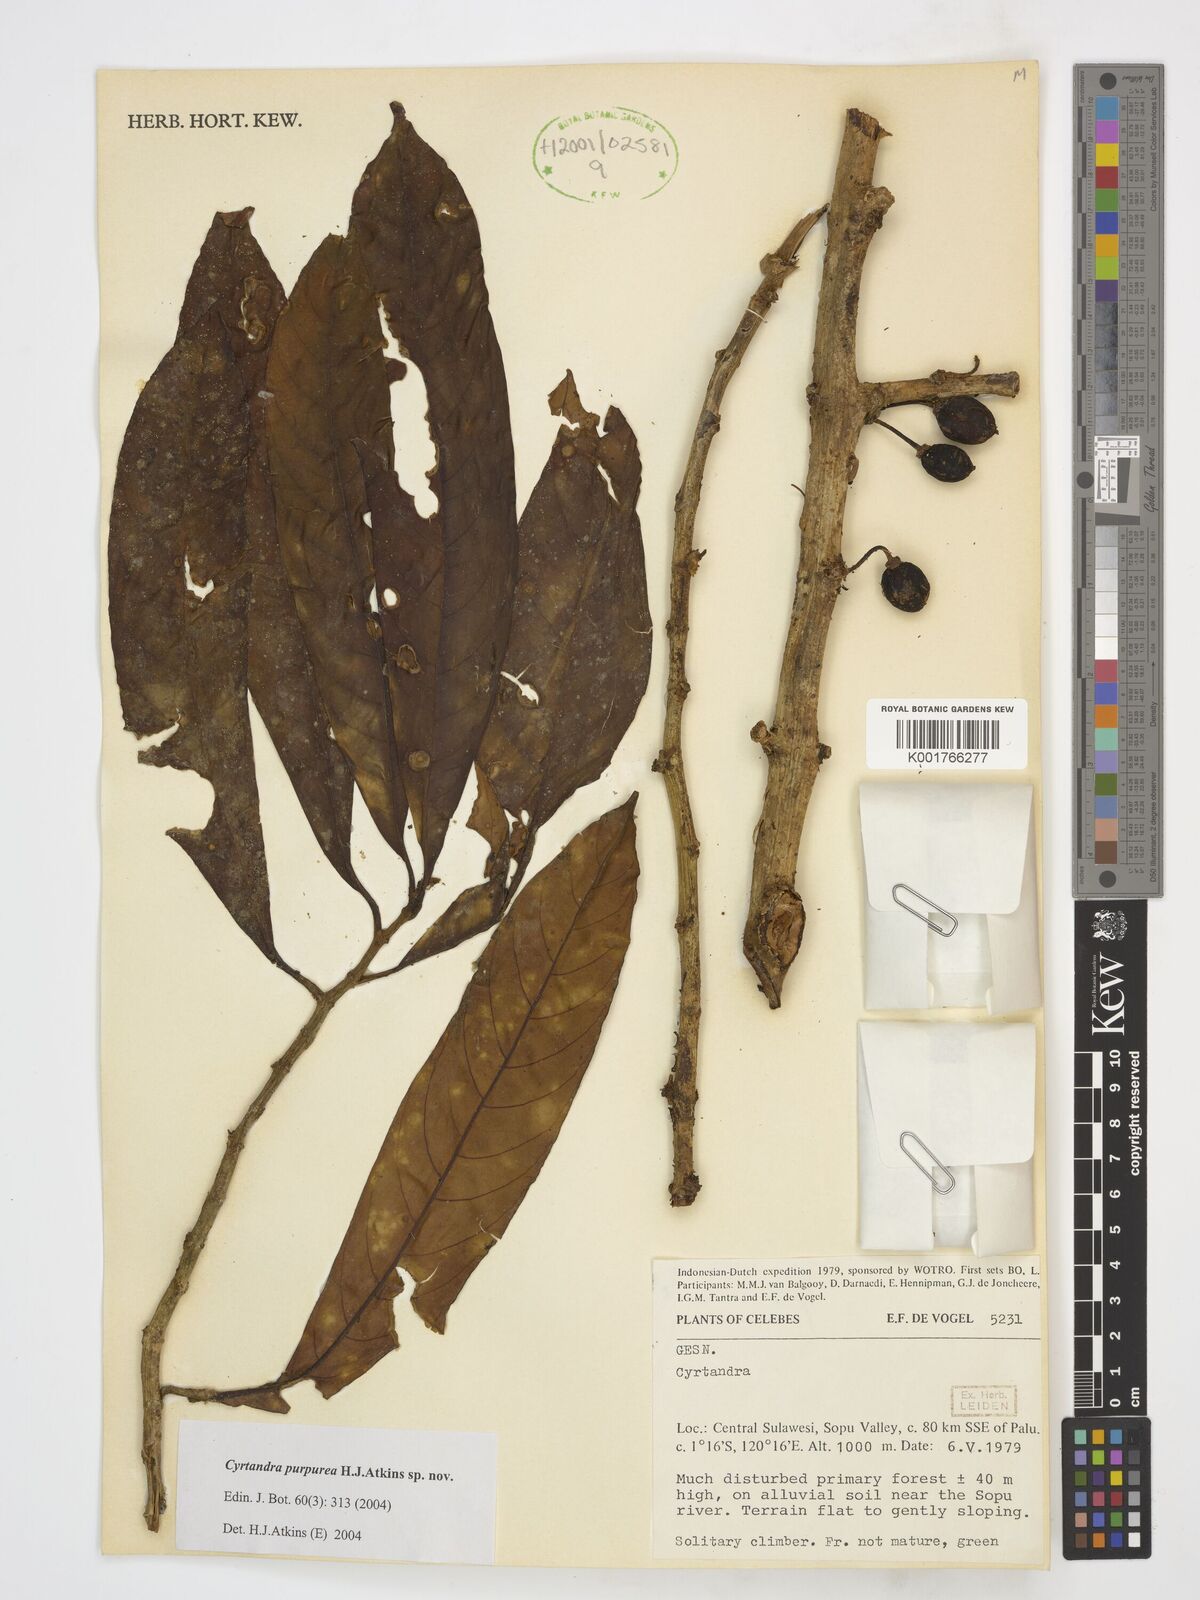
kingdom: Plantae
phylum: Tracheophyta
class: Magnoliopsida
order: Lamiales
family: Gesneriaceae
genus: Cyrtandra
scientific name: Cyrtandra purpurea
